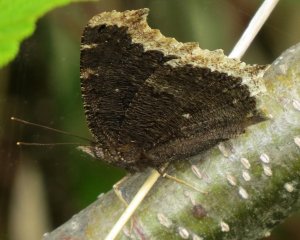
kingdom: Animalia
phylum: Arthropoda
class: Insecta
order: Lepidoptera
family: Nymphalidae
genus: Nymphalis
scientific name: Nymphalis antiopa
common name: Mourning Cloak
